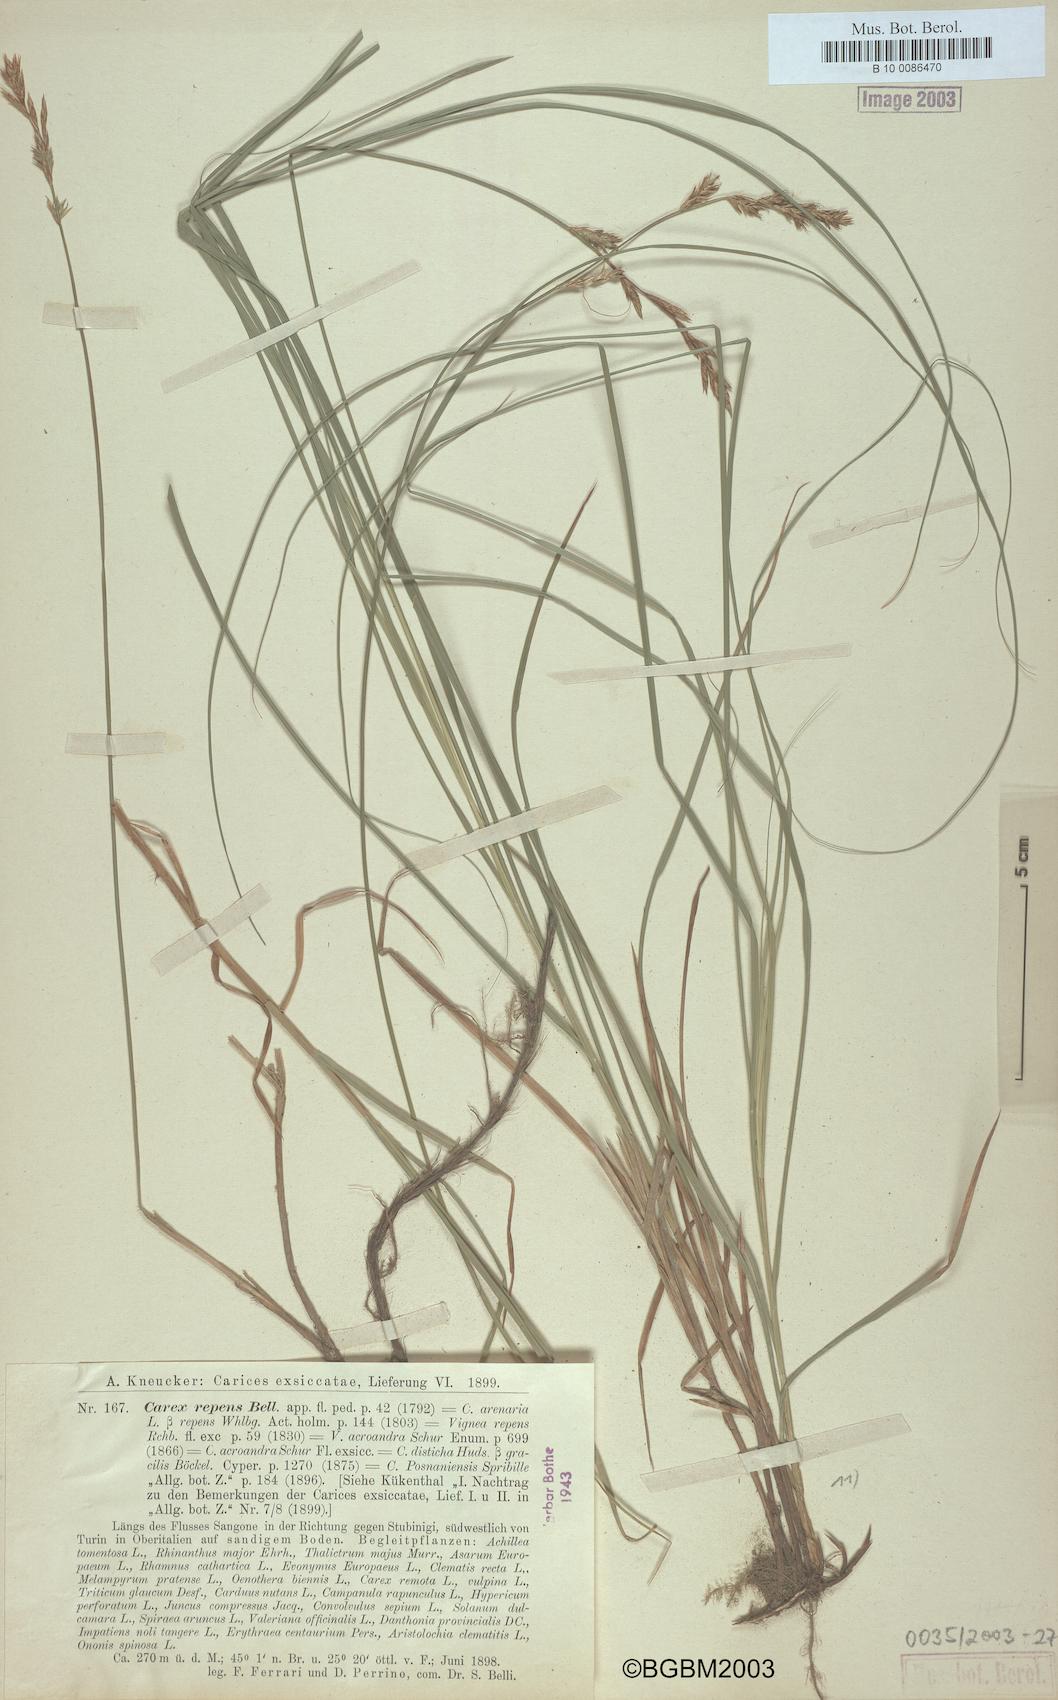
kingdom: Plantae
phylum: Tracheophyta
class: Liliopsida
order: Poales
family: Cyperaceae
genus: Carex
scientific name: Carex repens
